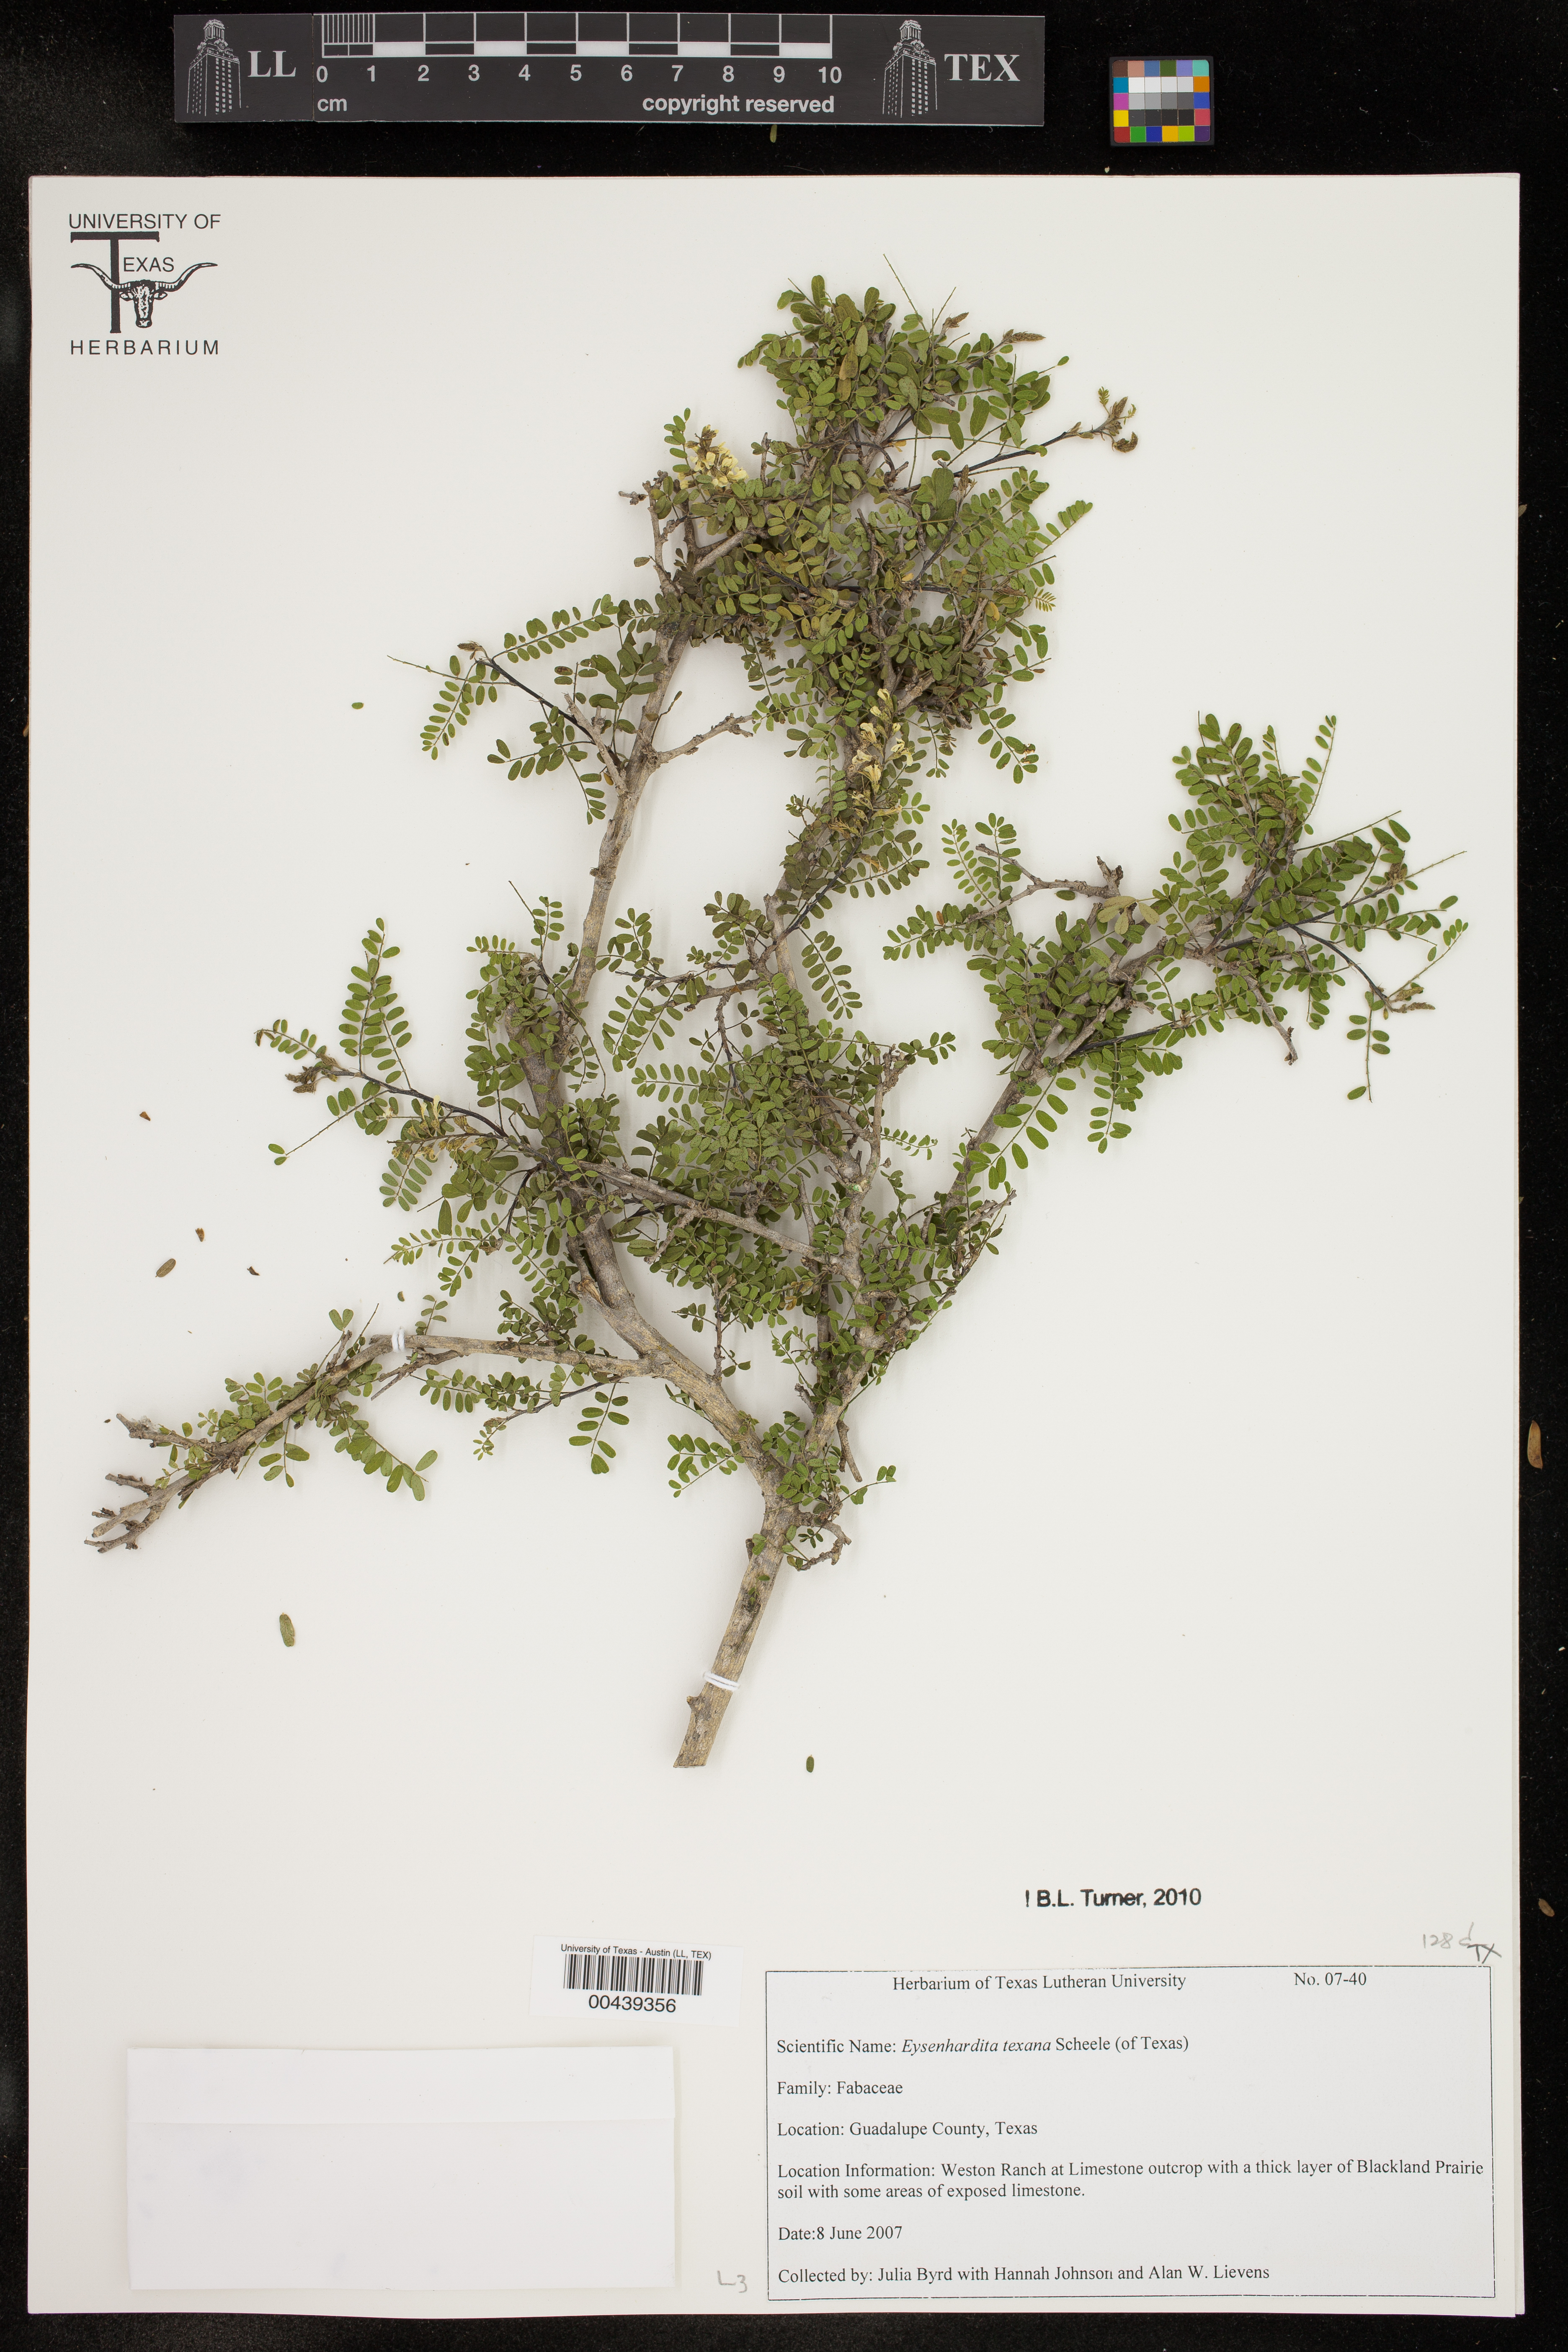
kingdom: Plantae
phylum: Tracheophyta
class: Magnoliopsida
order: Fabales
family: Fabaceae
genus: Eysenhardtia
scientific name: Eysenhardtia texana
